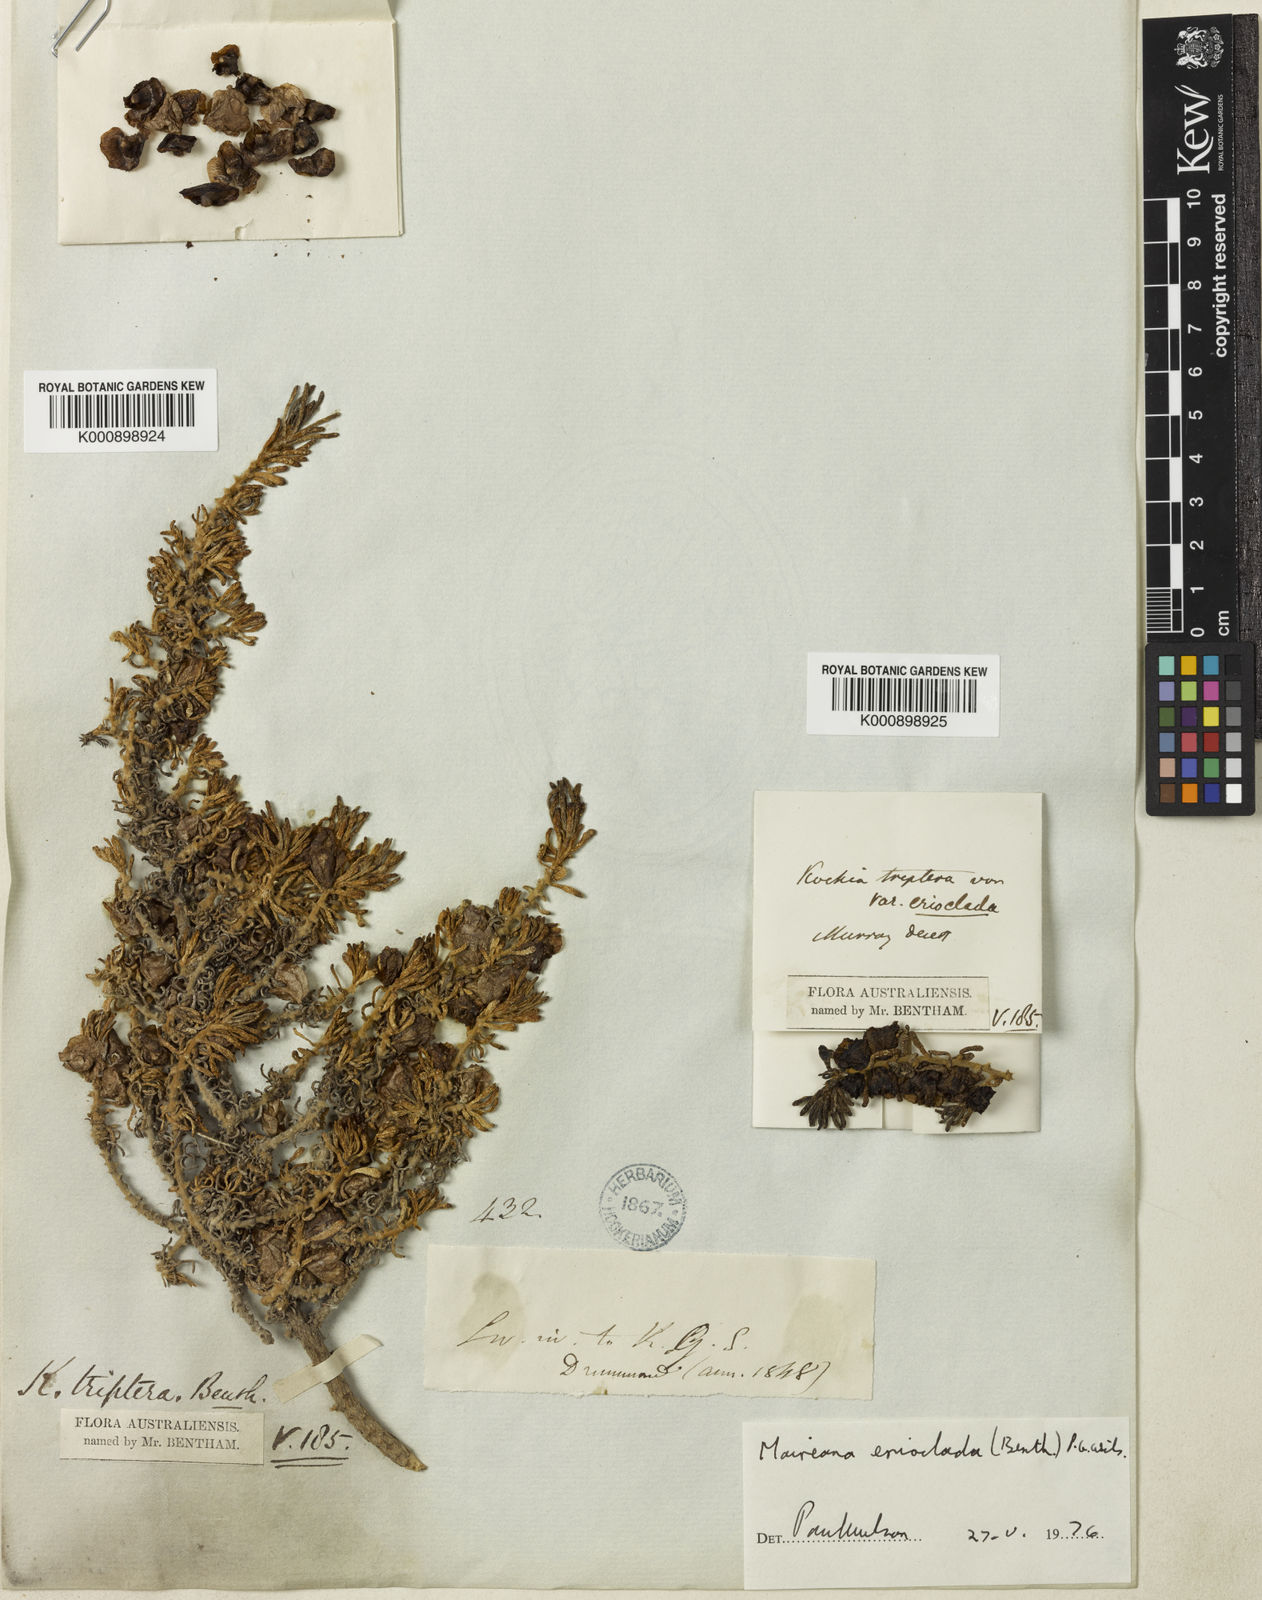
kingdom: Plantae
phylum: Tracheophyta
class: Magnoliopsida
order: Caryophyllales
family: Amaranthaceae
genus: Maireana
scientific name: Maireana erioclada
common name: Rosy bluebush
